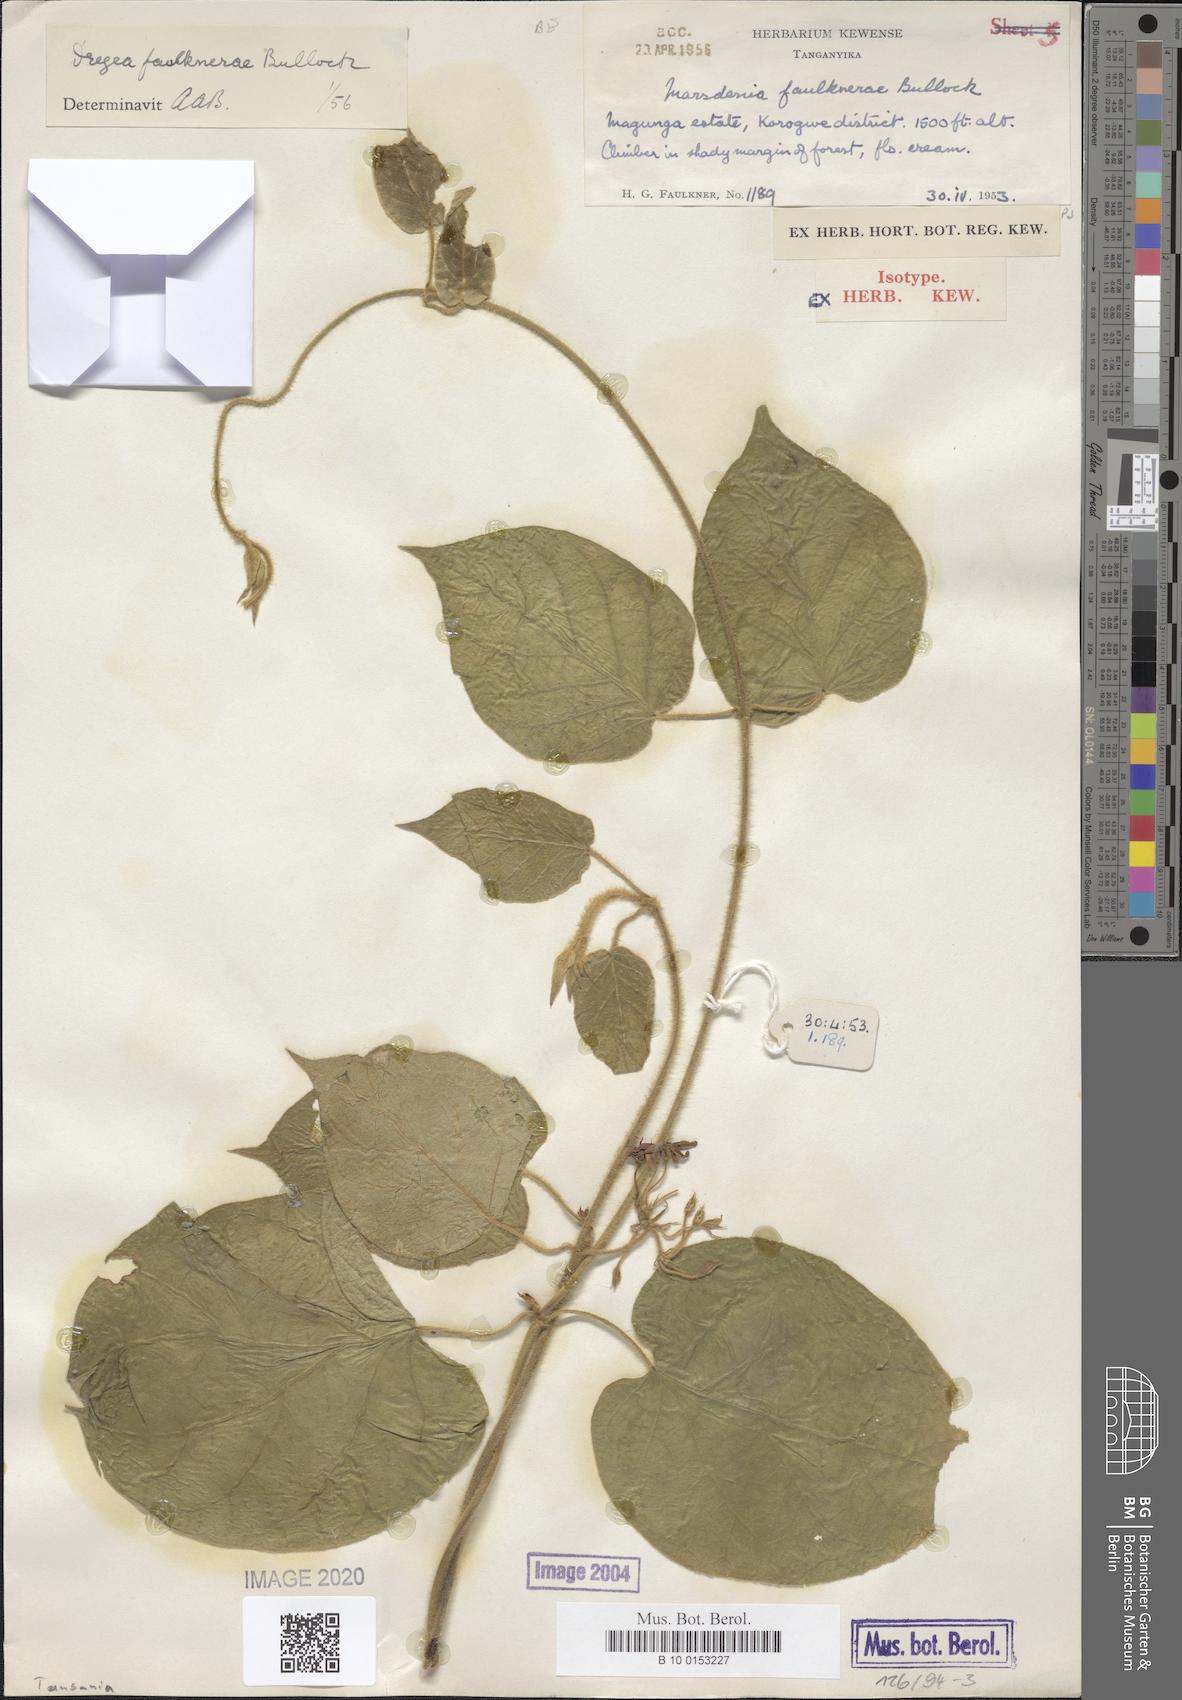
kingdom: Plantae
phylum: Tracheophyta
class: Magnoliopsida
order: Gentianales
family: Apocynaceae
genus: Stephanotis
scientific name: Stephanotis faulknerae
